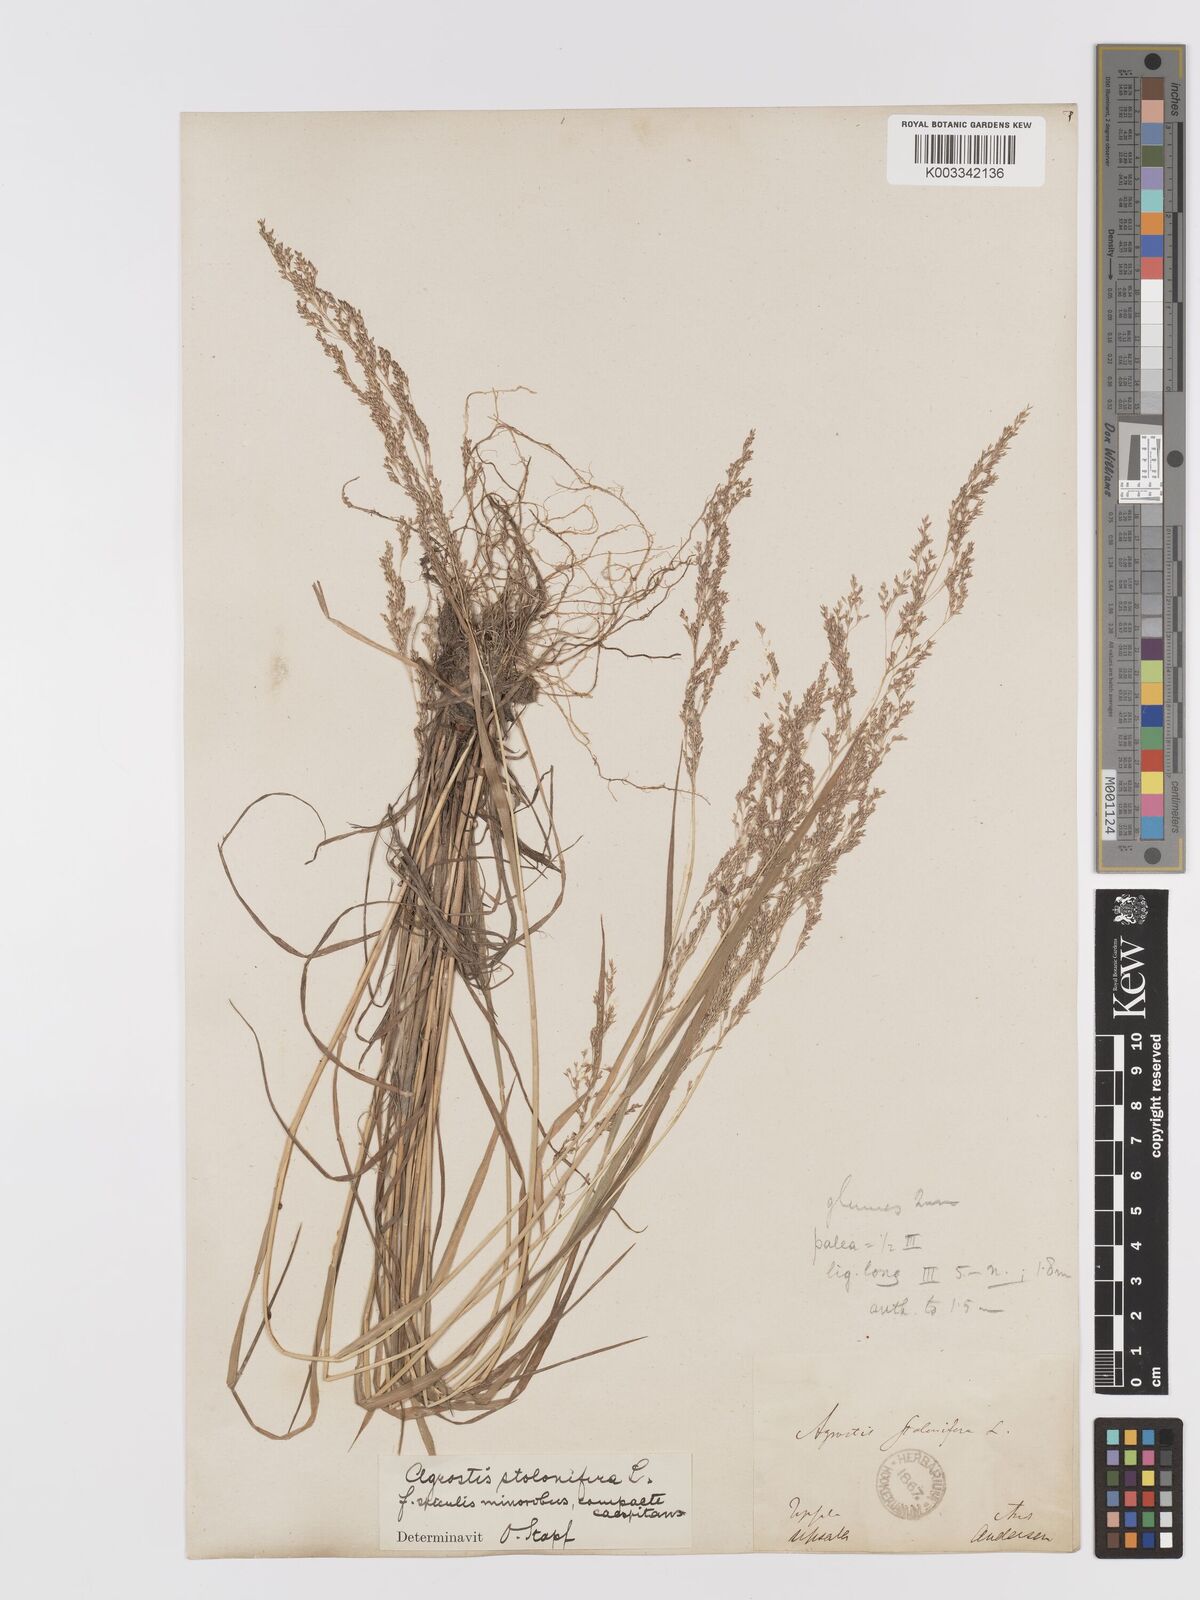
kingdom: Plantae
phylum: Tracheophyta
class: Liliopsida
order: Poales
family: Poaceae
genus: Agrostis
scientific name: Agrostis stolonifera
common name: Creeping bentgrass
